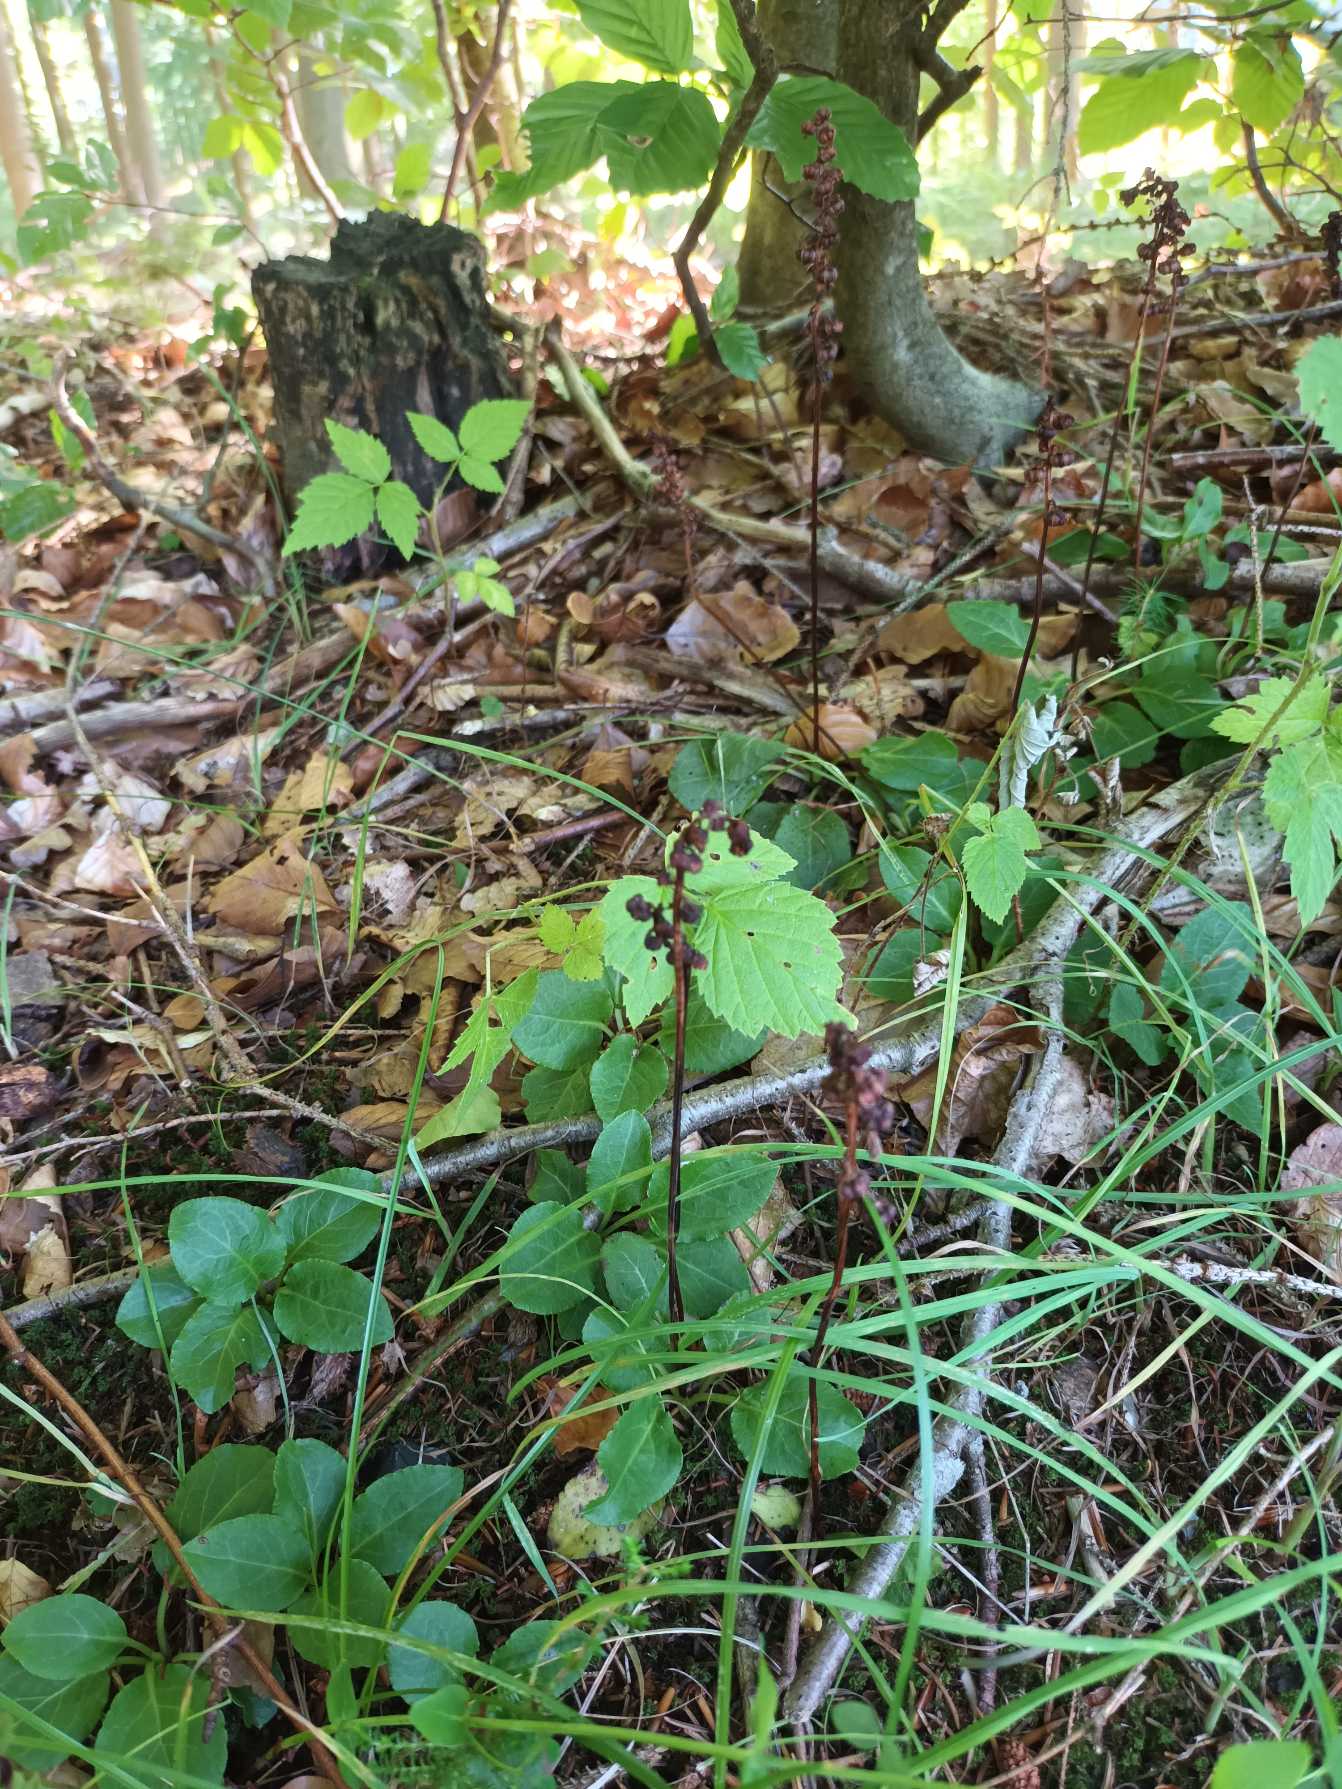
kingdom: Plantae
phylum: Tracheophyta
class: Magnoliopsida
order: Ericales
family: Ericaceae
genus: Pyrola
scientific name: Pyrola minor
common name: Liden vintergrøn
